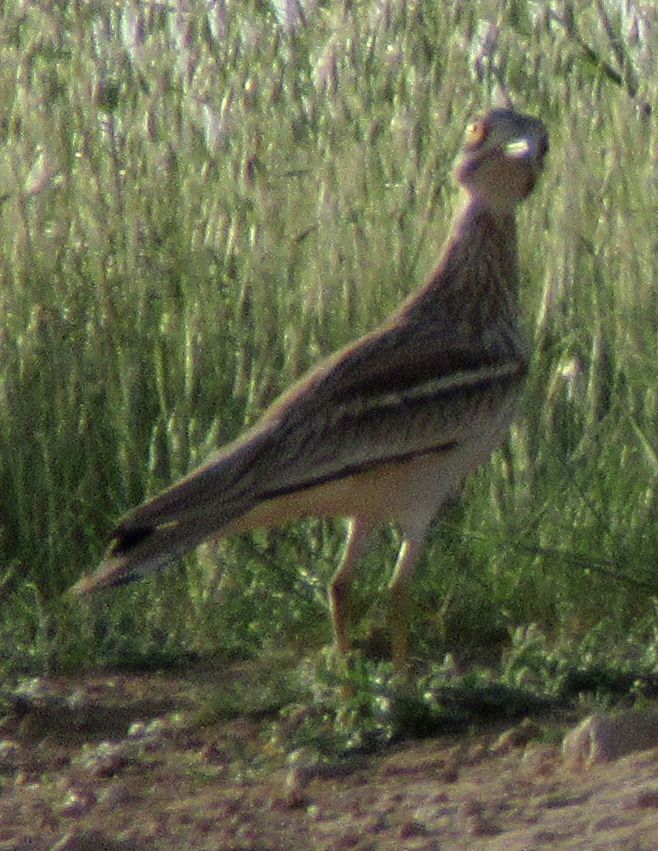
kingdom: Animalia
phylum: Chordata
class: Aves
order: Charadriiformes
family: Burhinidae
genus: Burhinus
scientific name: Burhinus oedicnemus
